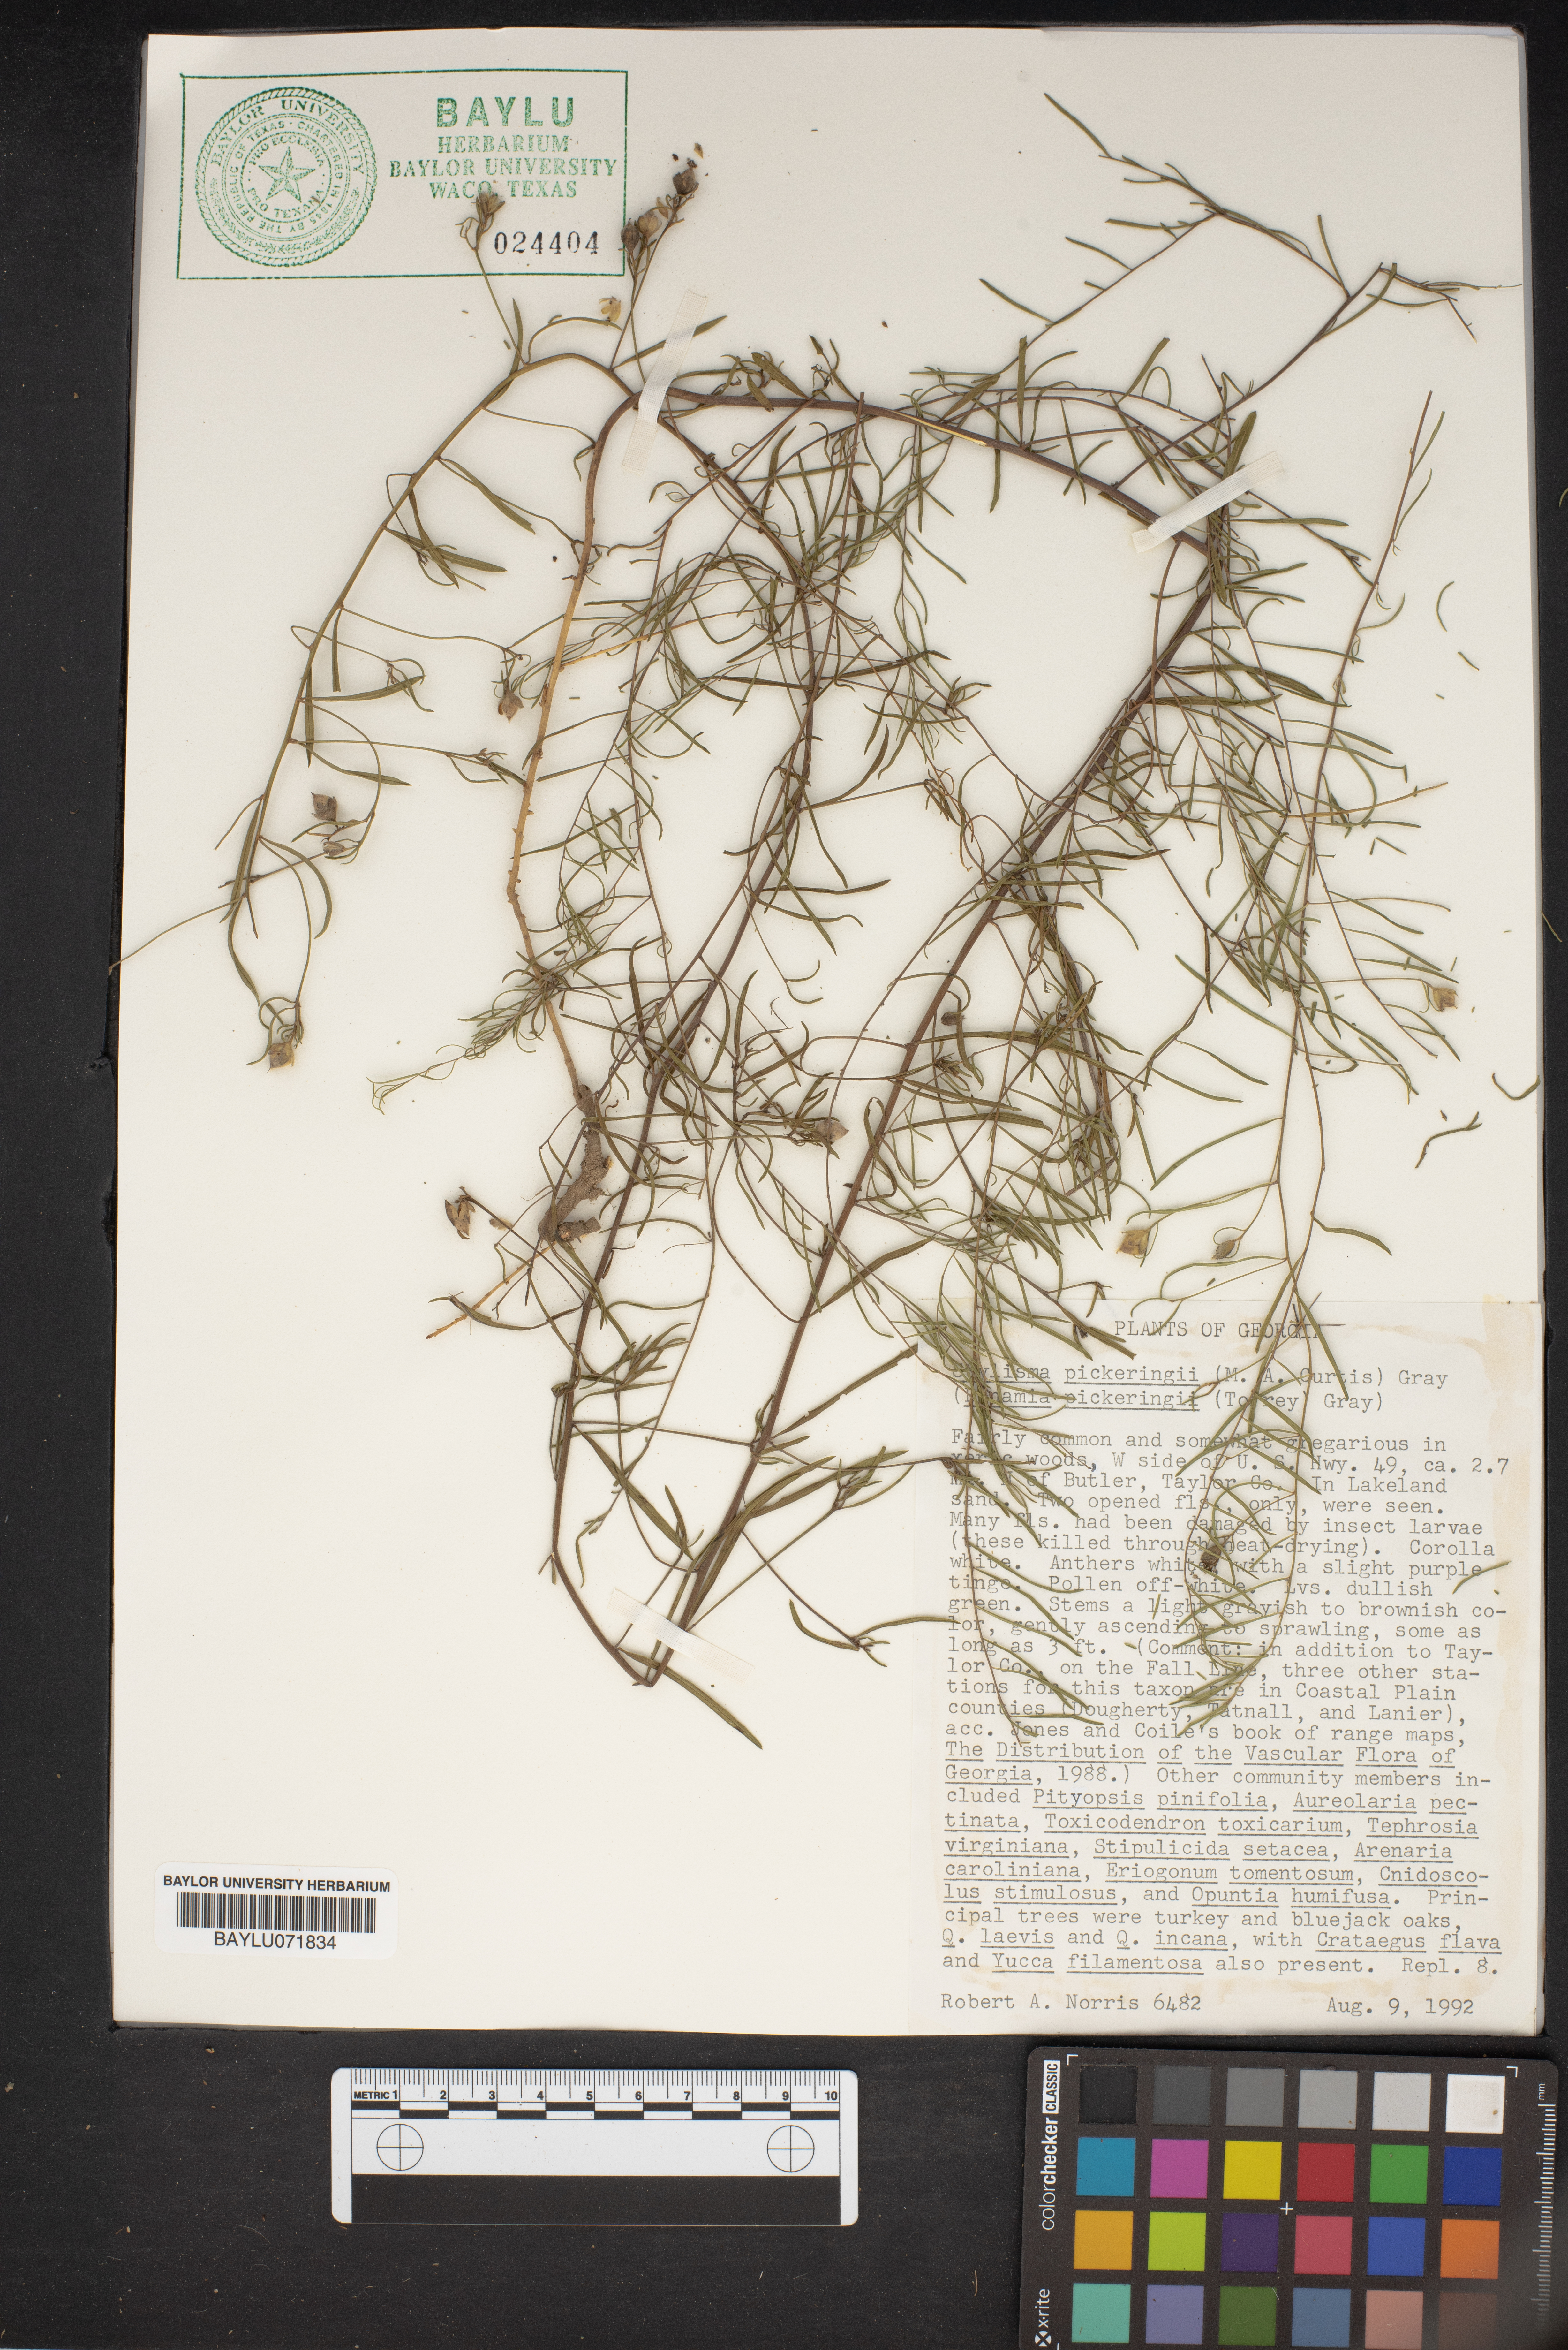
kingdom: Plantae
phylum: Tracheophyta
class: Magnoliopsida
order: Solanales
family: Convolvulaceae
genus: Stylisma
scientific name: Stylisma pickeringii
